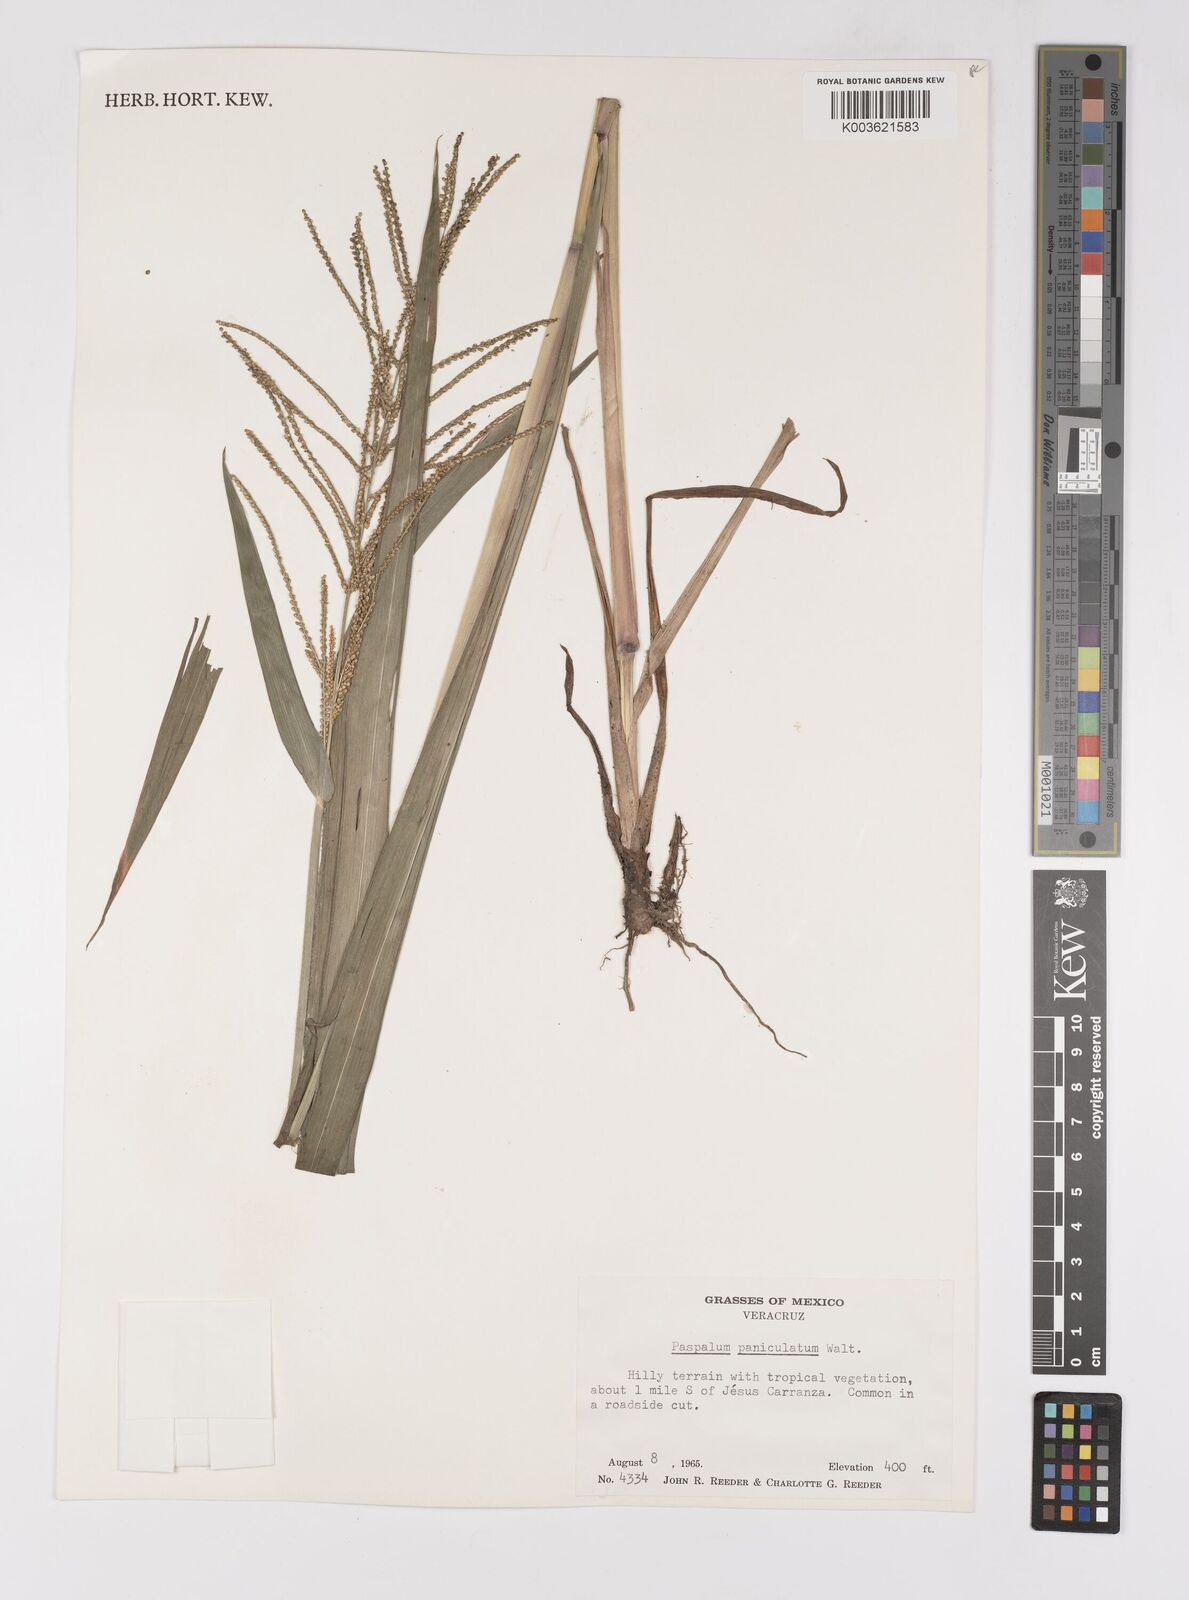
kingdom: Plantae
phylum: Tracheophyta
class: Liliopsida
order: Poales
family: Poaceae
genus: Paspalum
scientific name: Paspalum paniculatum
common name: Arrocillo
